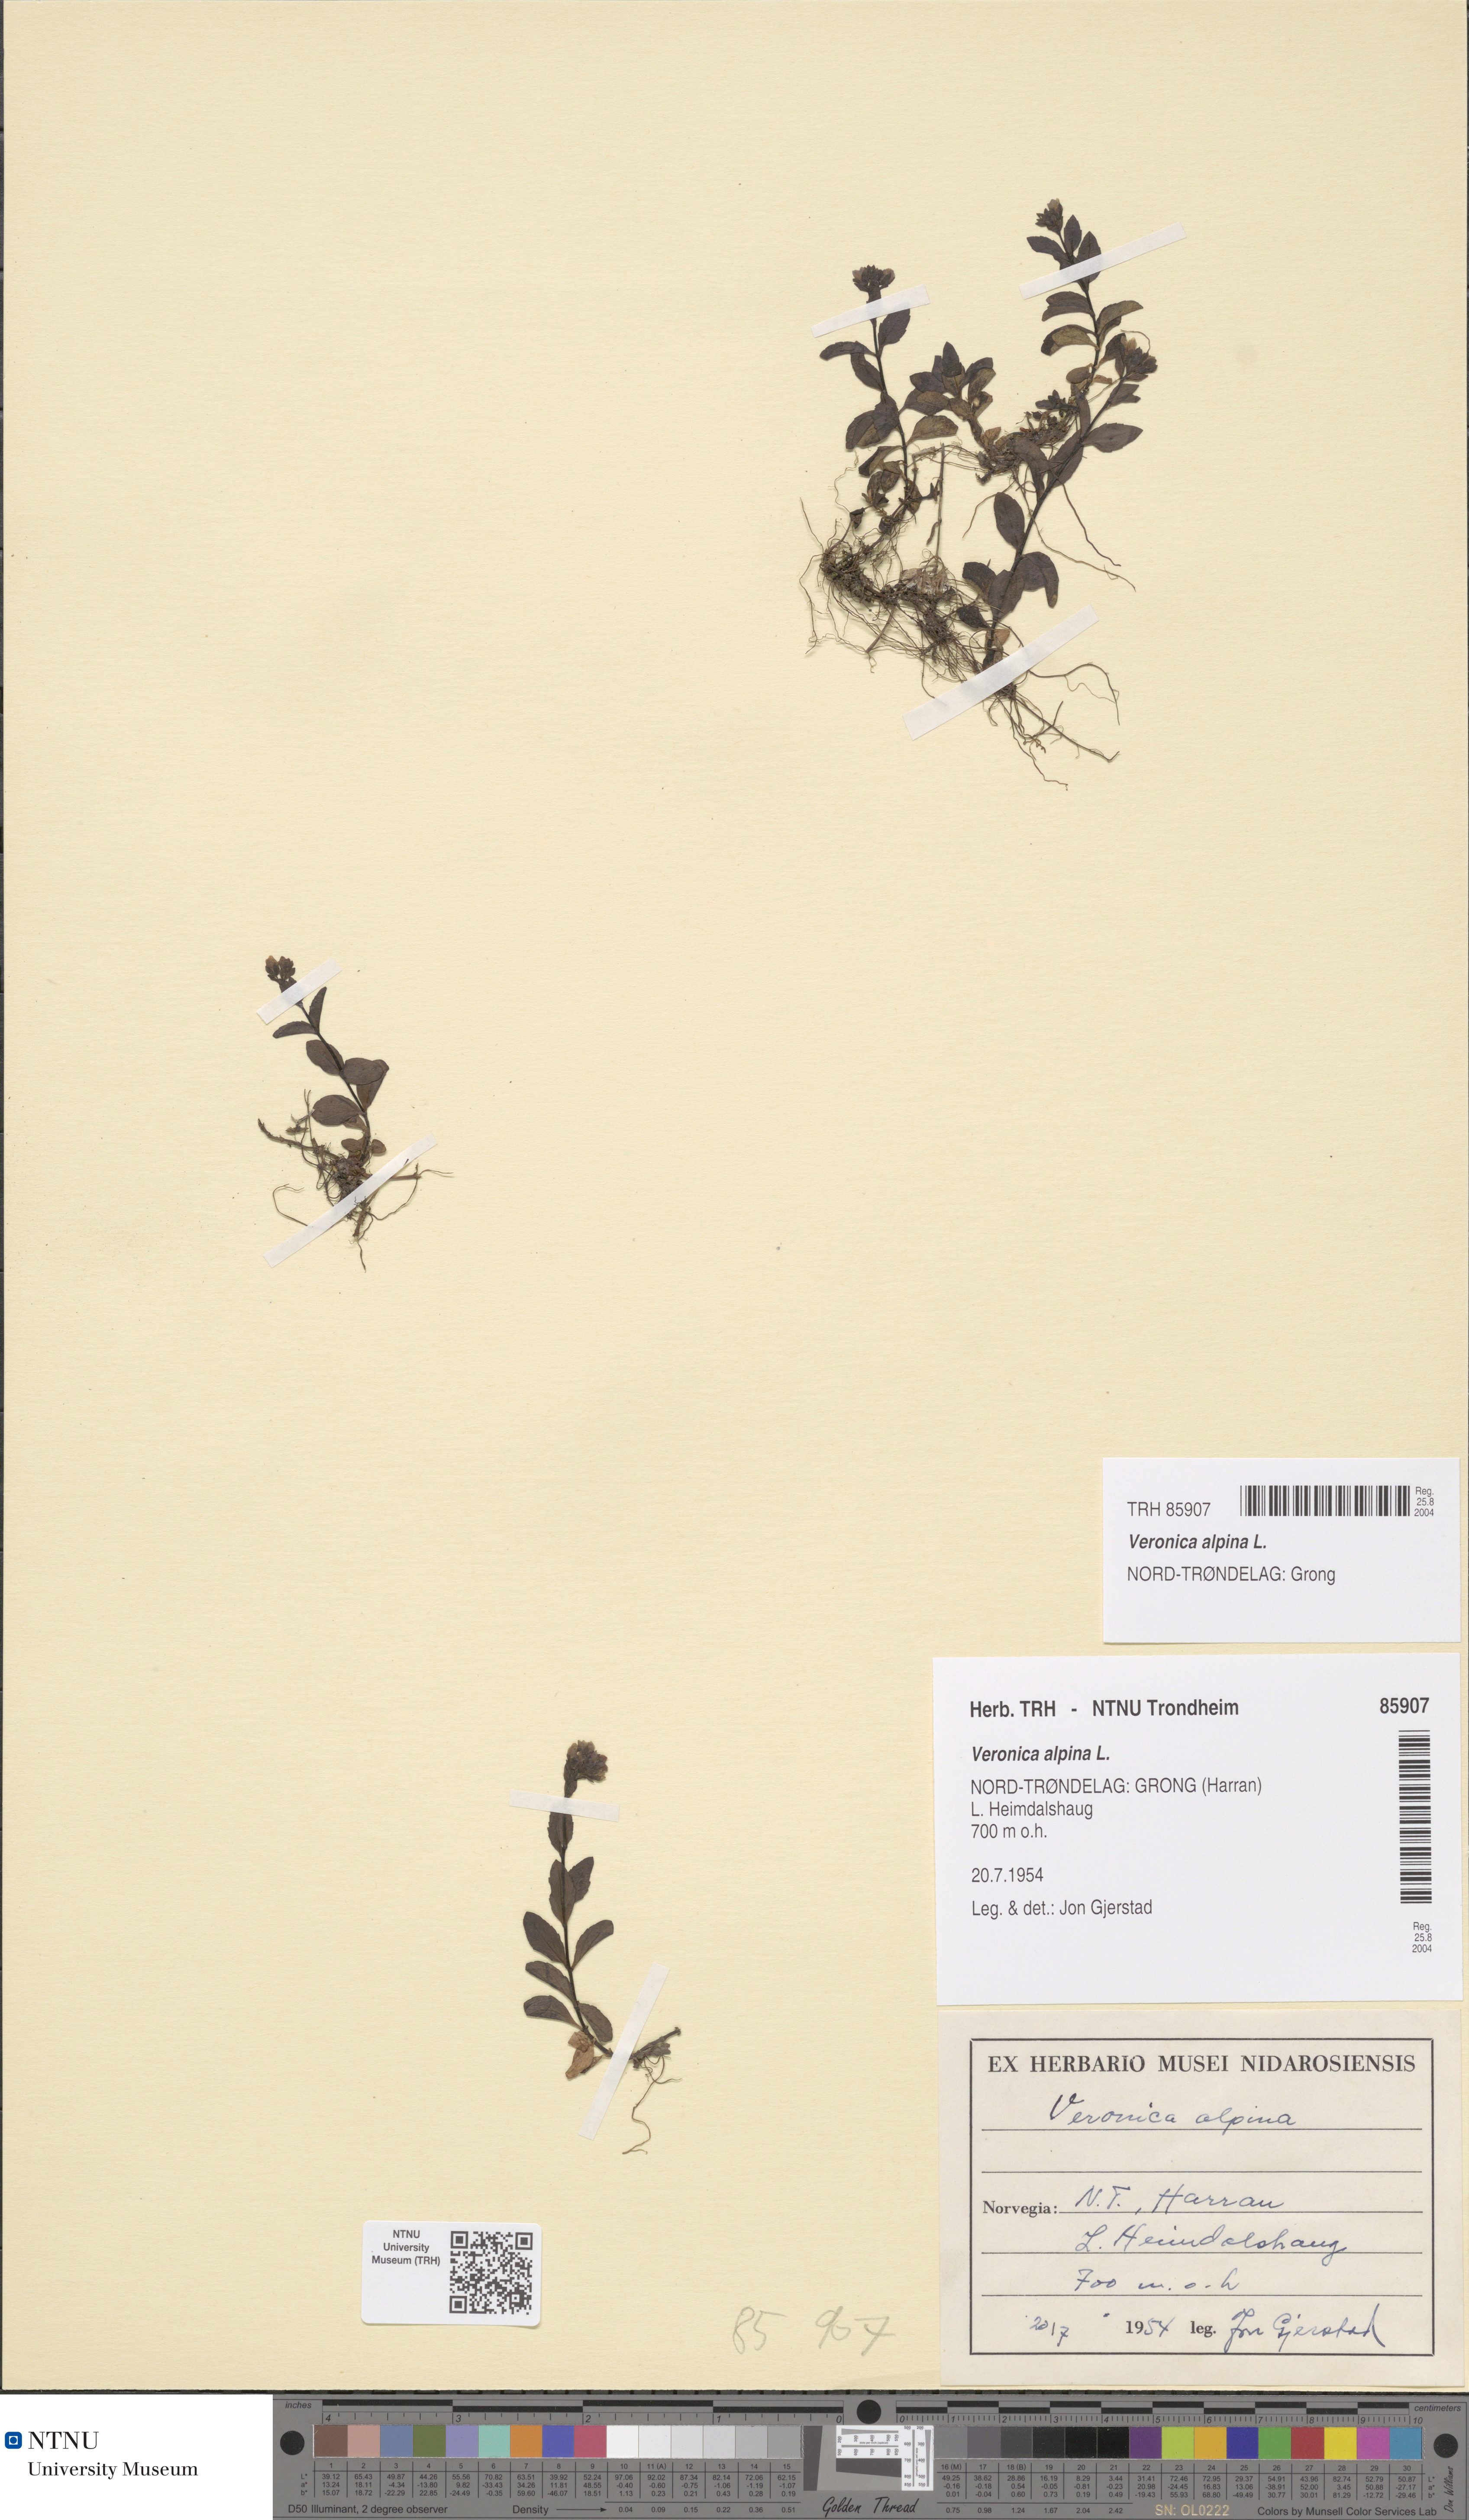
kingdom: Plantae
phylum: Tracheophyta
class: Magnoliopsida
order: Lamiales
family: Plantaginaceae
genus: Veronica
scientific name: Veronica alpina
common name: Alpine speedwell
